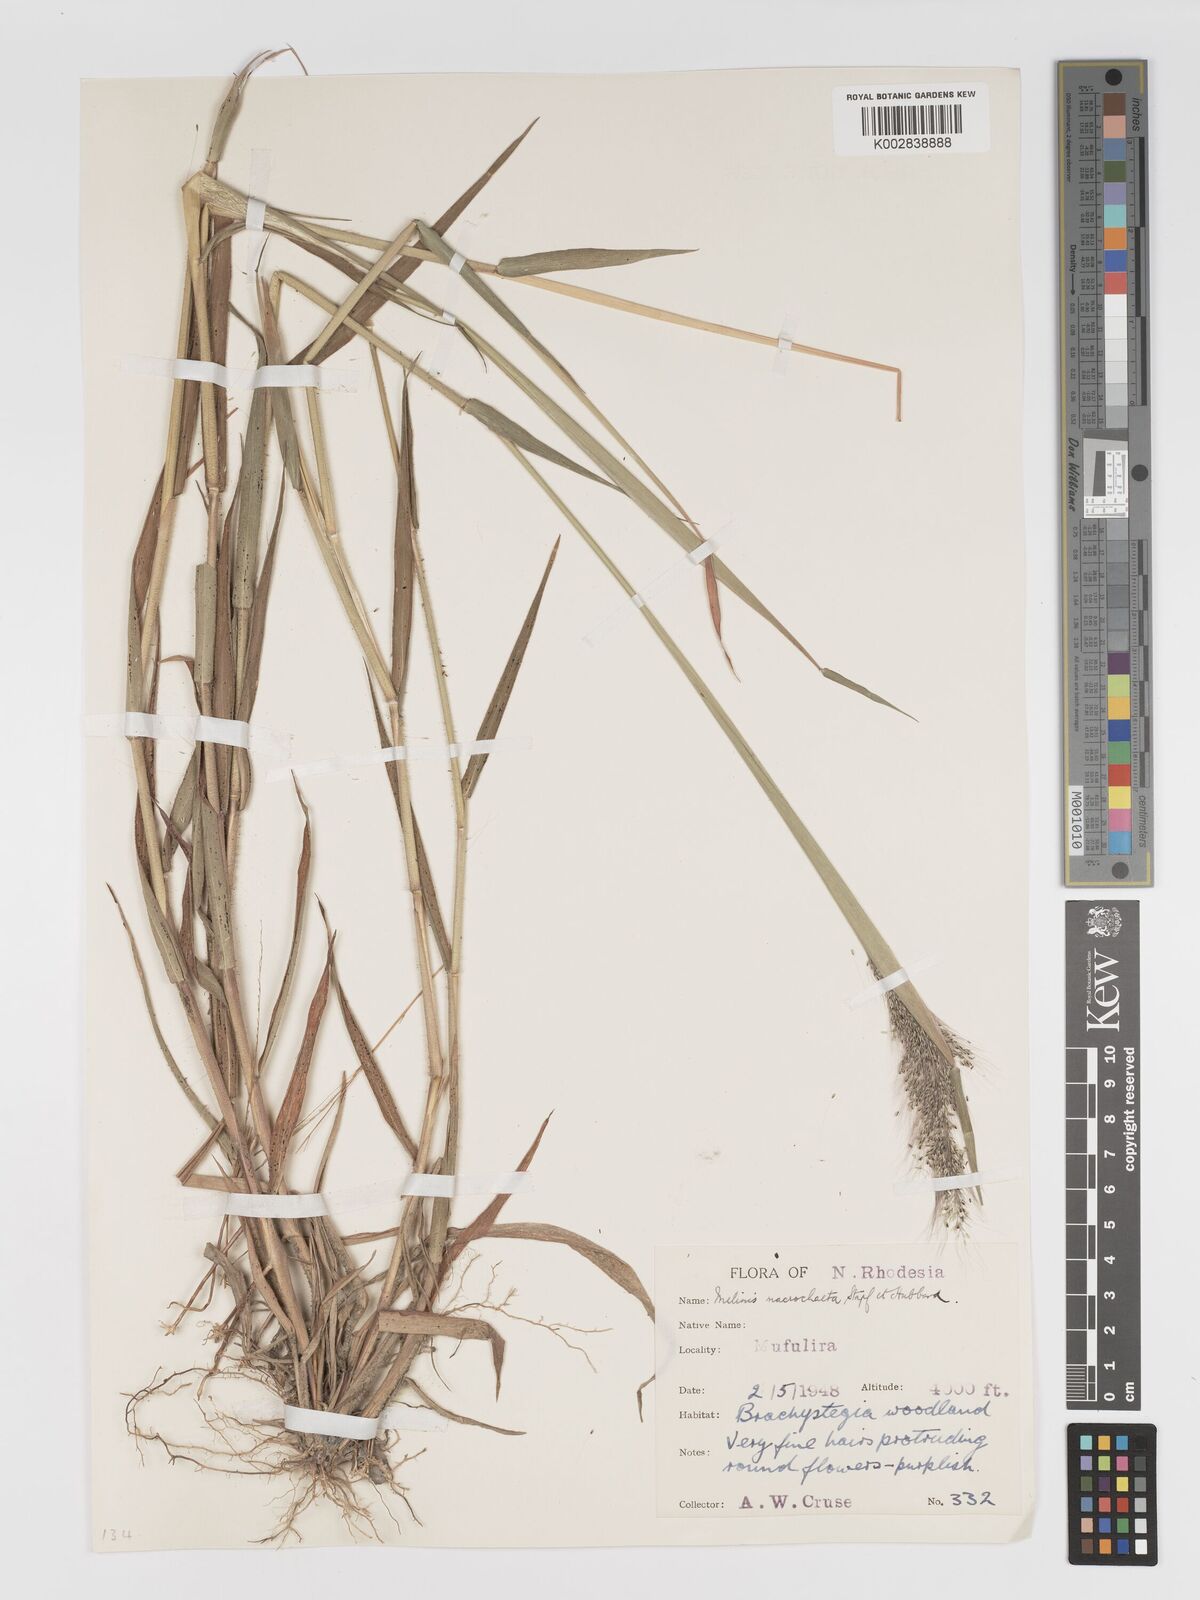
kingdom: Plantae
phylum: Tracheophyta
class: Liliopsida
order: Poales
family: Poaceae
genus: Melinis
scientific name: Melinis macrochaeta
